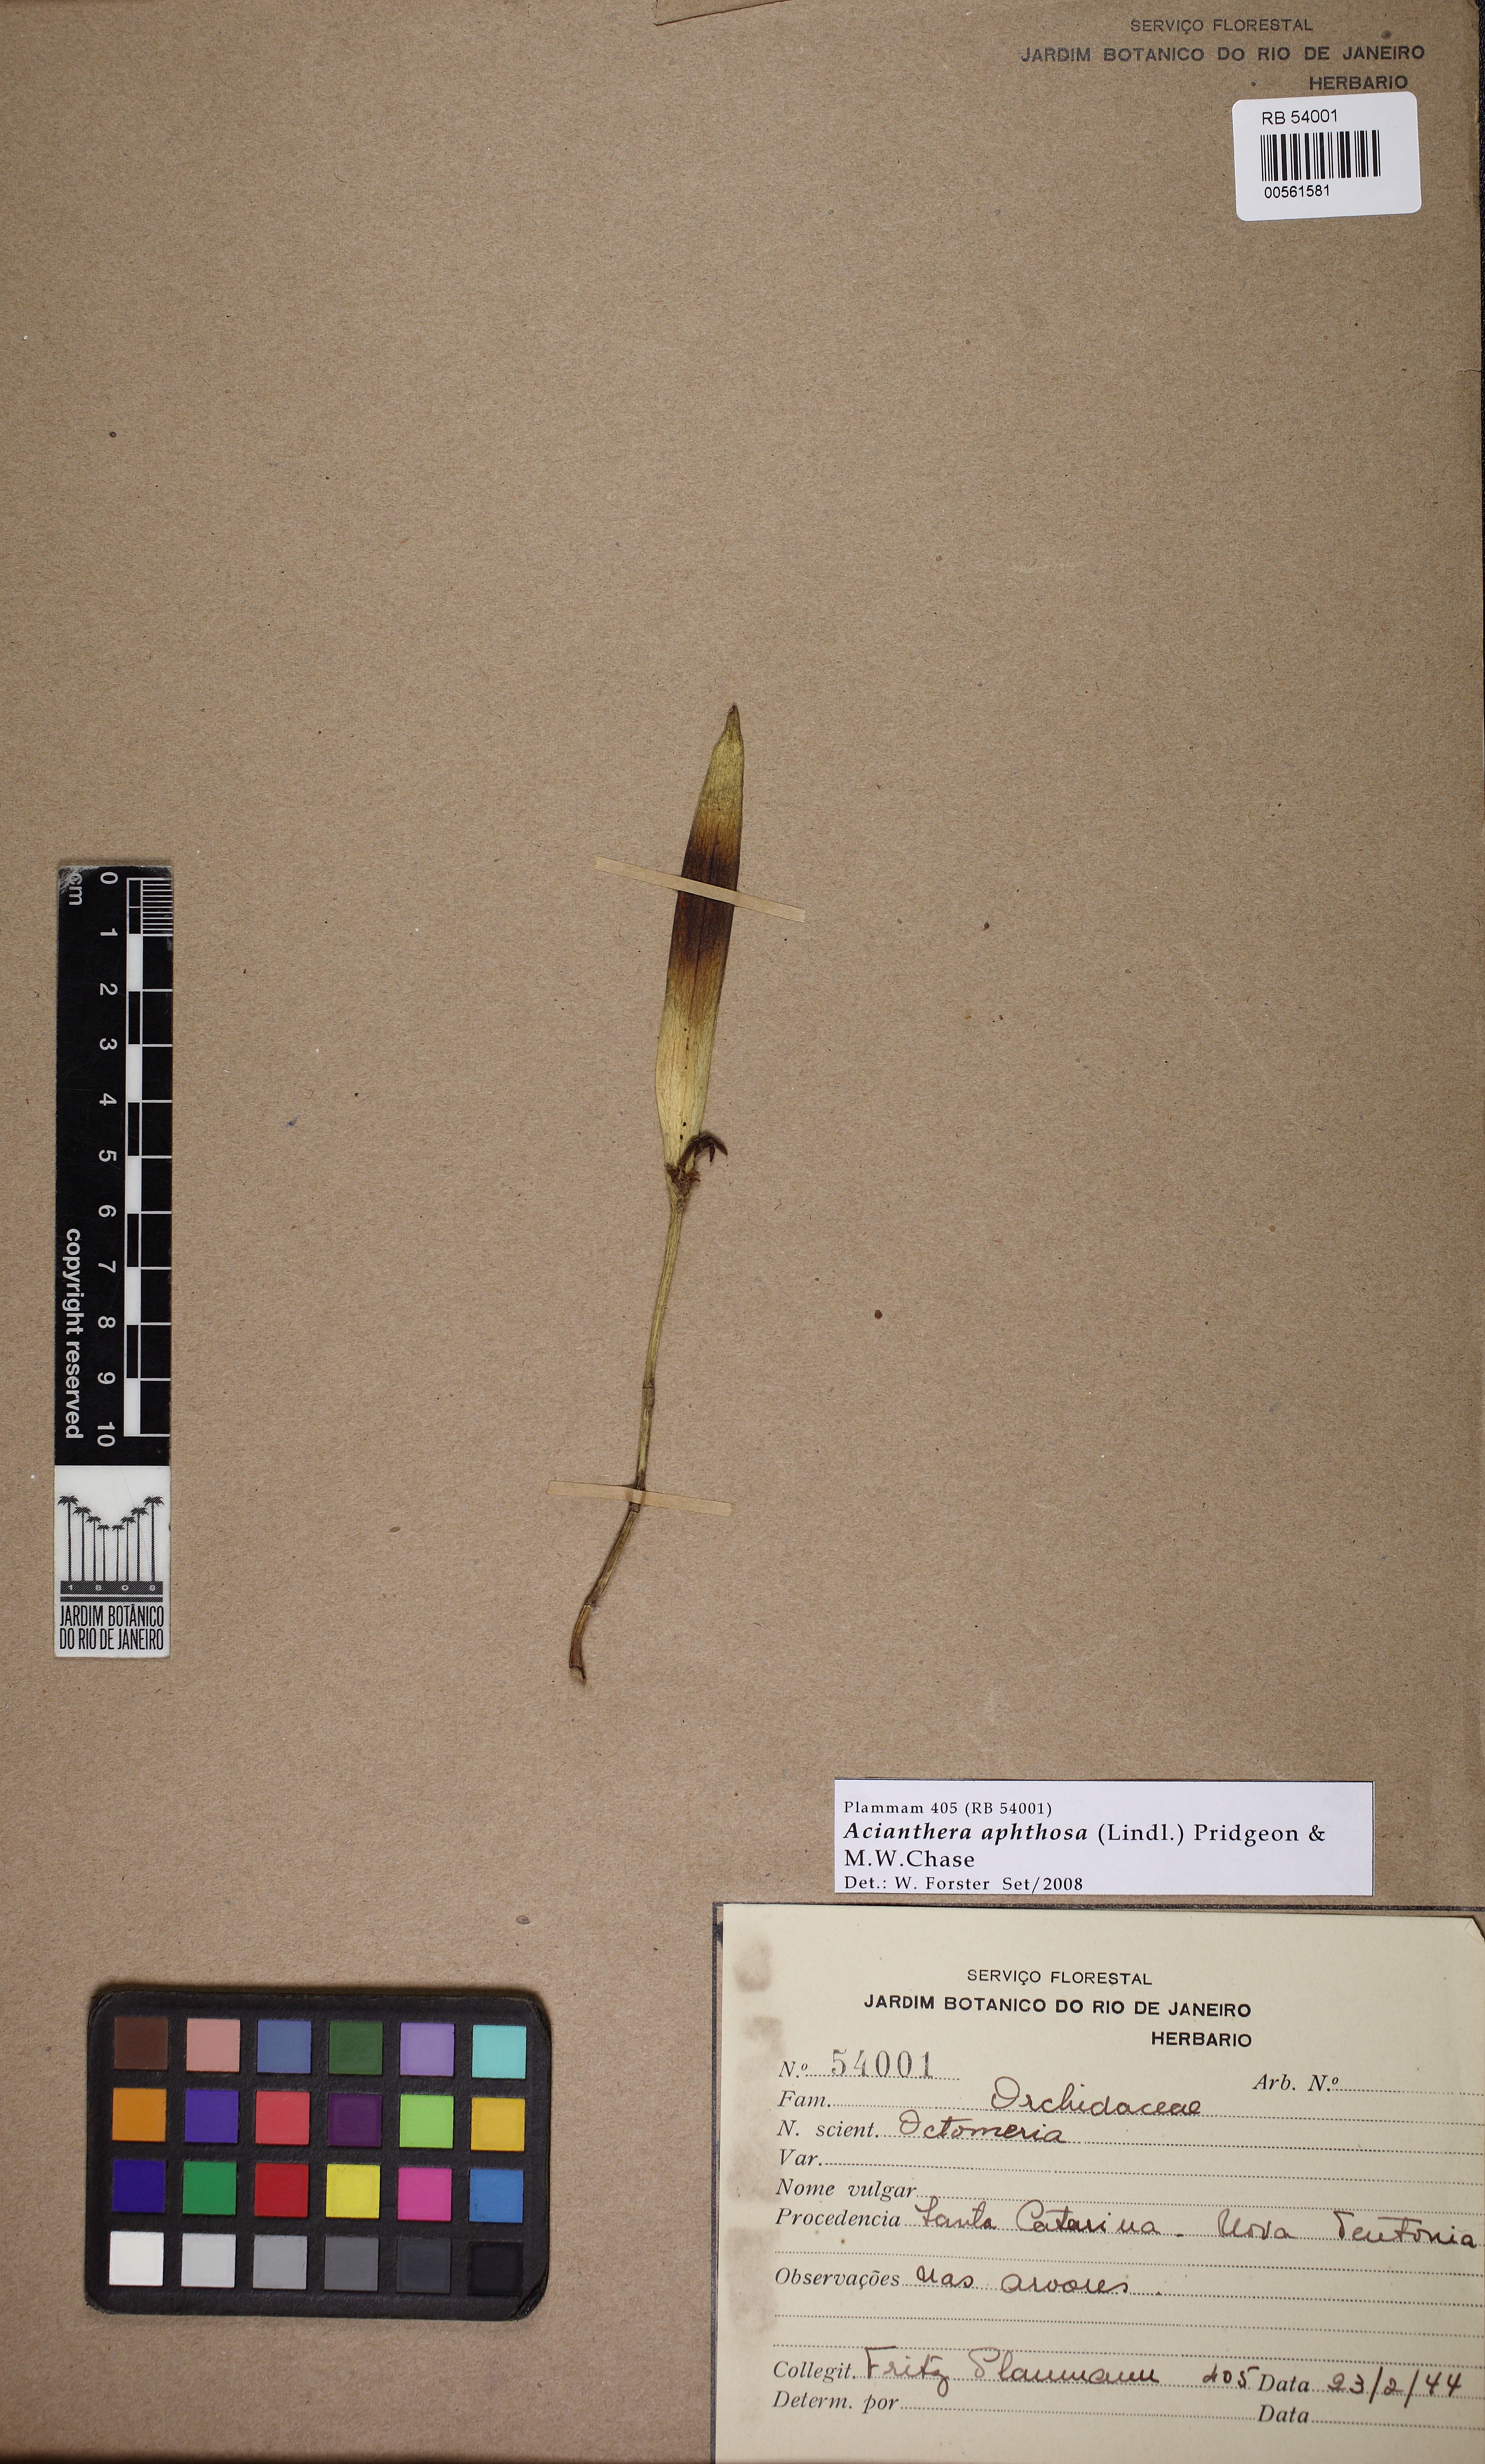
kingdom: Plantae
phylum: Tracheophyta
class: Liliopsida
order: Asparagales
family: Orchidaceae
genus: Acianthera
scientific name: Acianthera aphthosa
